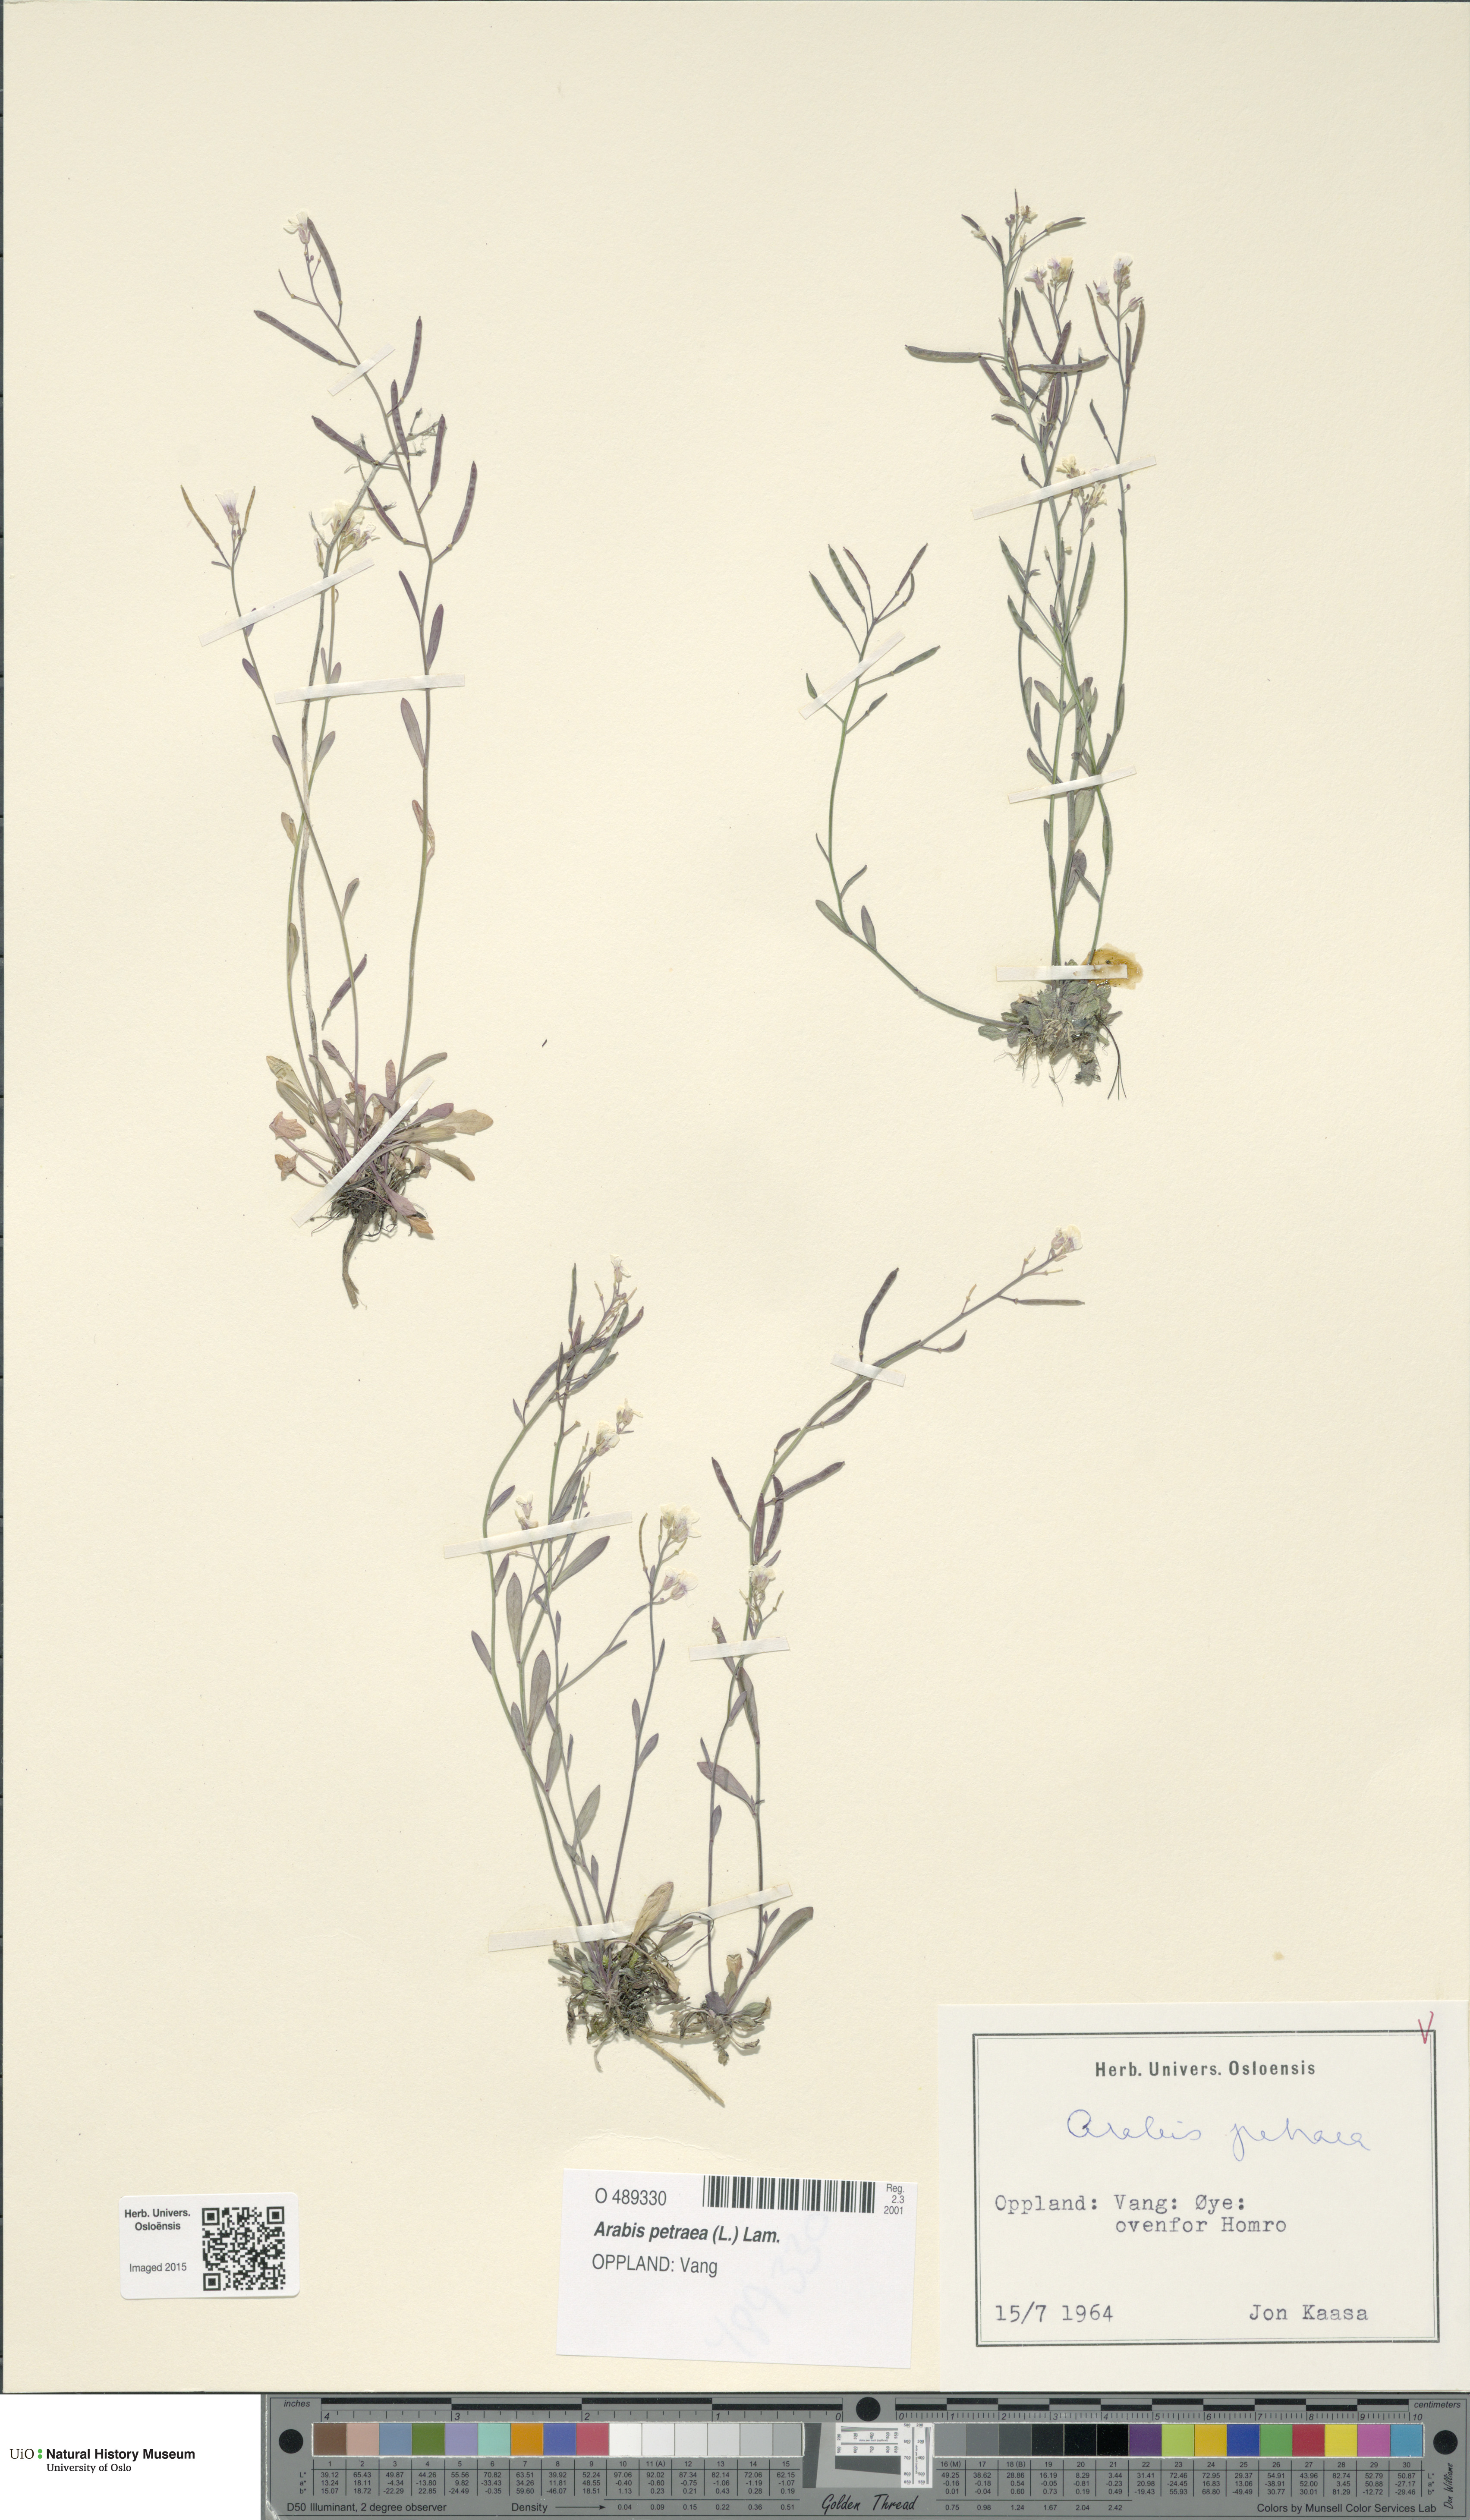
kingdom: Plantae
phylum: Tracheophyta
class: Magnoliopsida
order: Brassicales
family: Brassicaceae
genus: Arabidopsis
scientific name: Arabidopsis petraea
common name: Northern rock-cress
